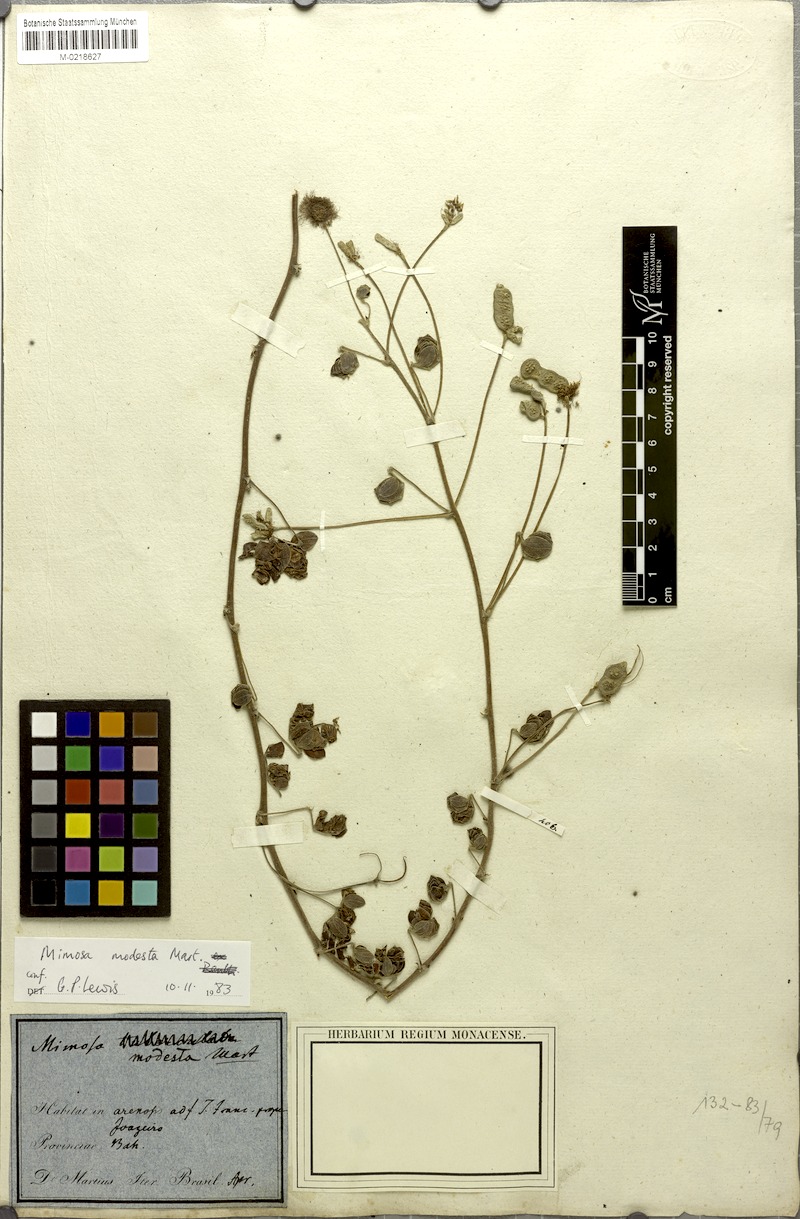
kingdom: Plantae
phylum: Tracheophyta
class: Magnoliopsida
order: Fabales
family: Fabaceae
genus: Mimosa
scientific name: Mimosa modesta
